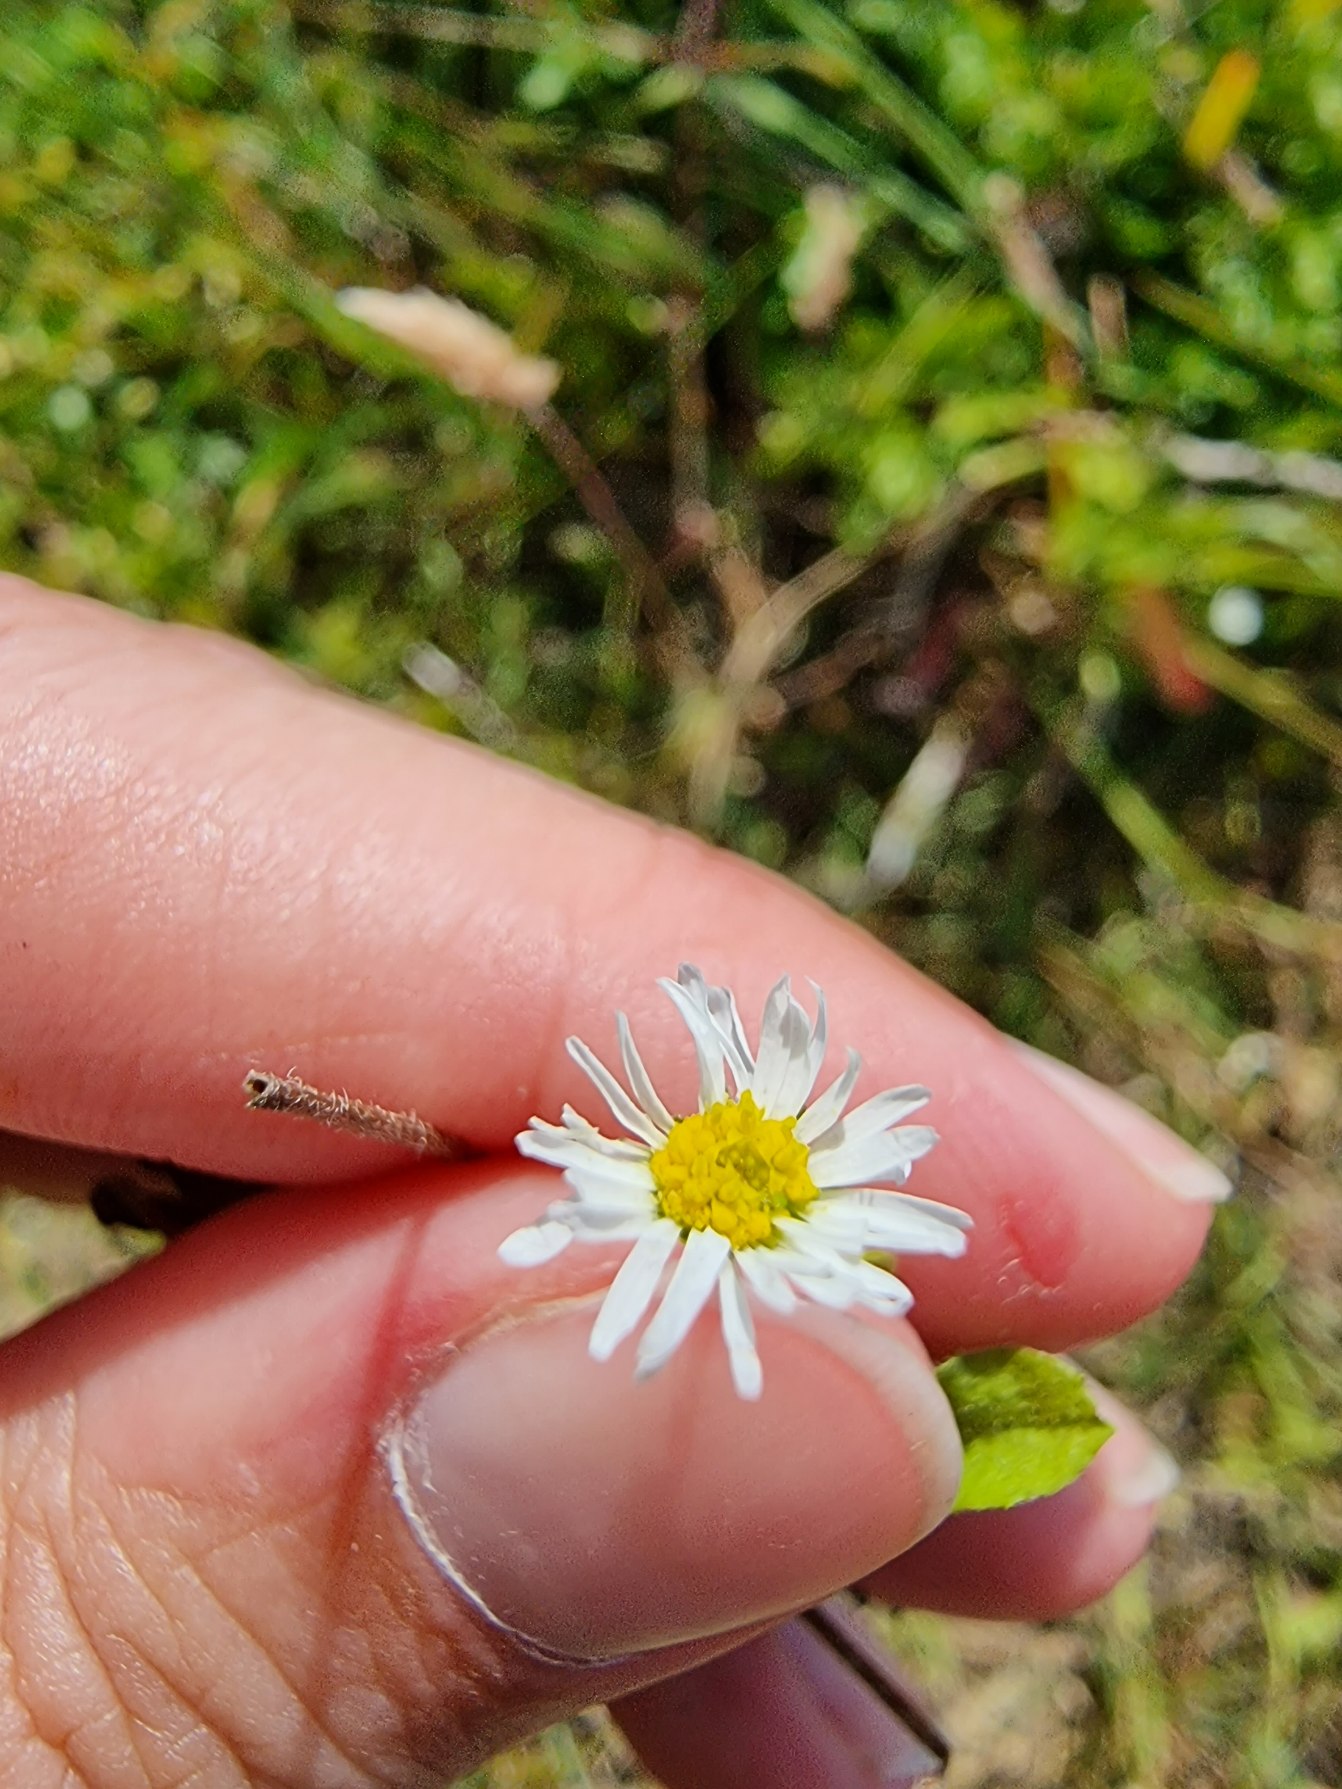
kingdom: Plantae
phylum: Tracheophyta
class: Magnoliopsida
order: Asterales
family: Asteraceae
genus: Bellis
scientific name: Bellis perennis
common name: Tusindfryd
